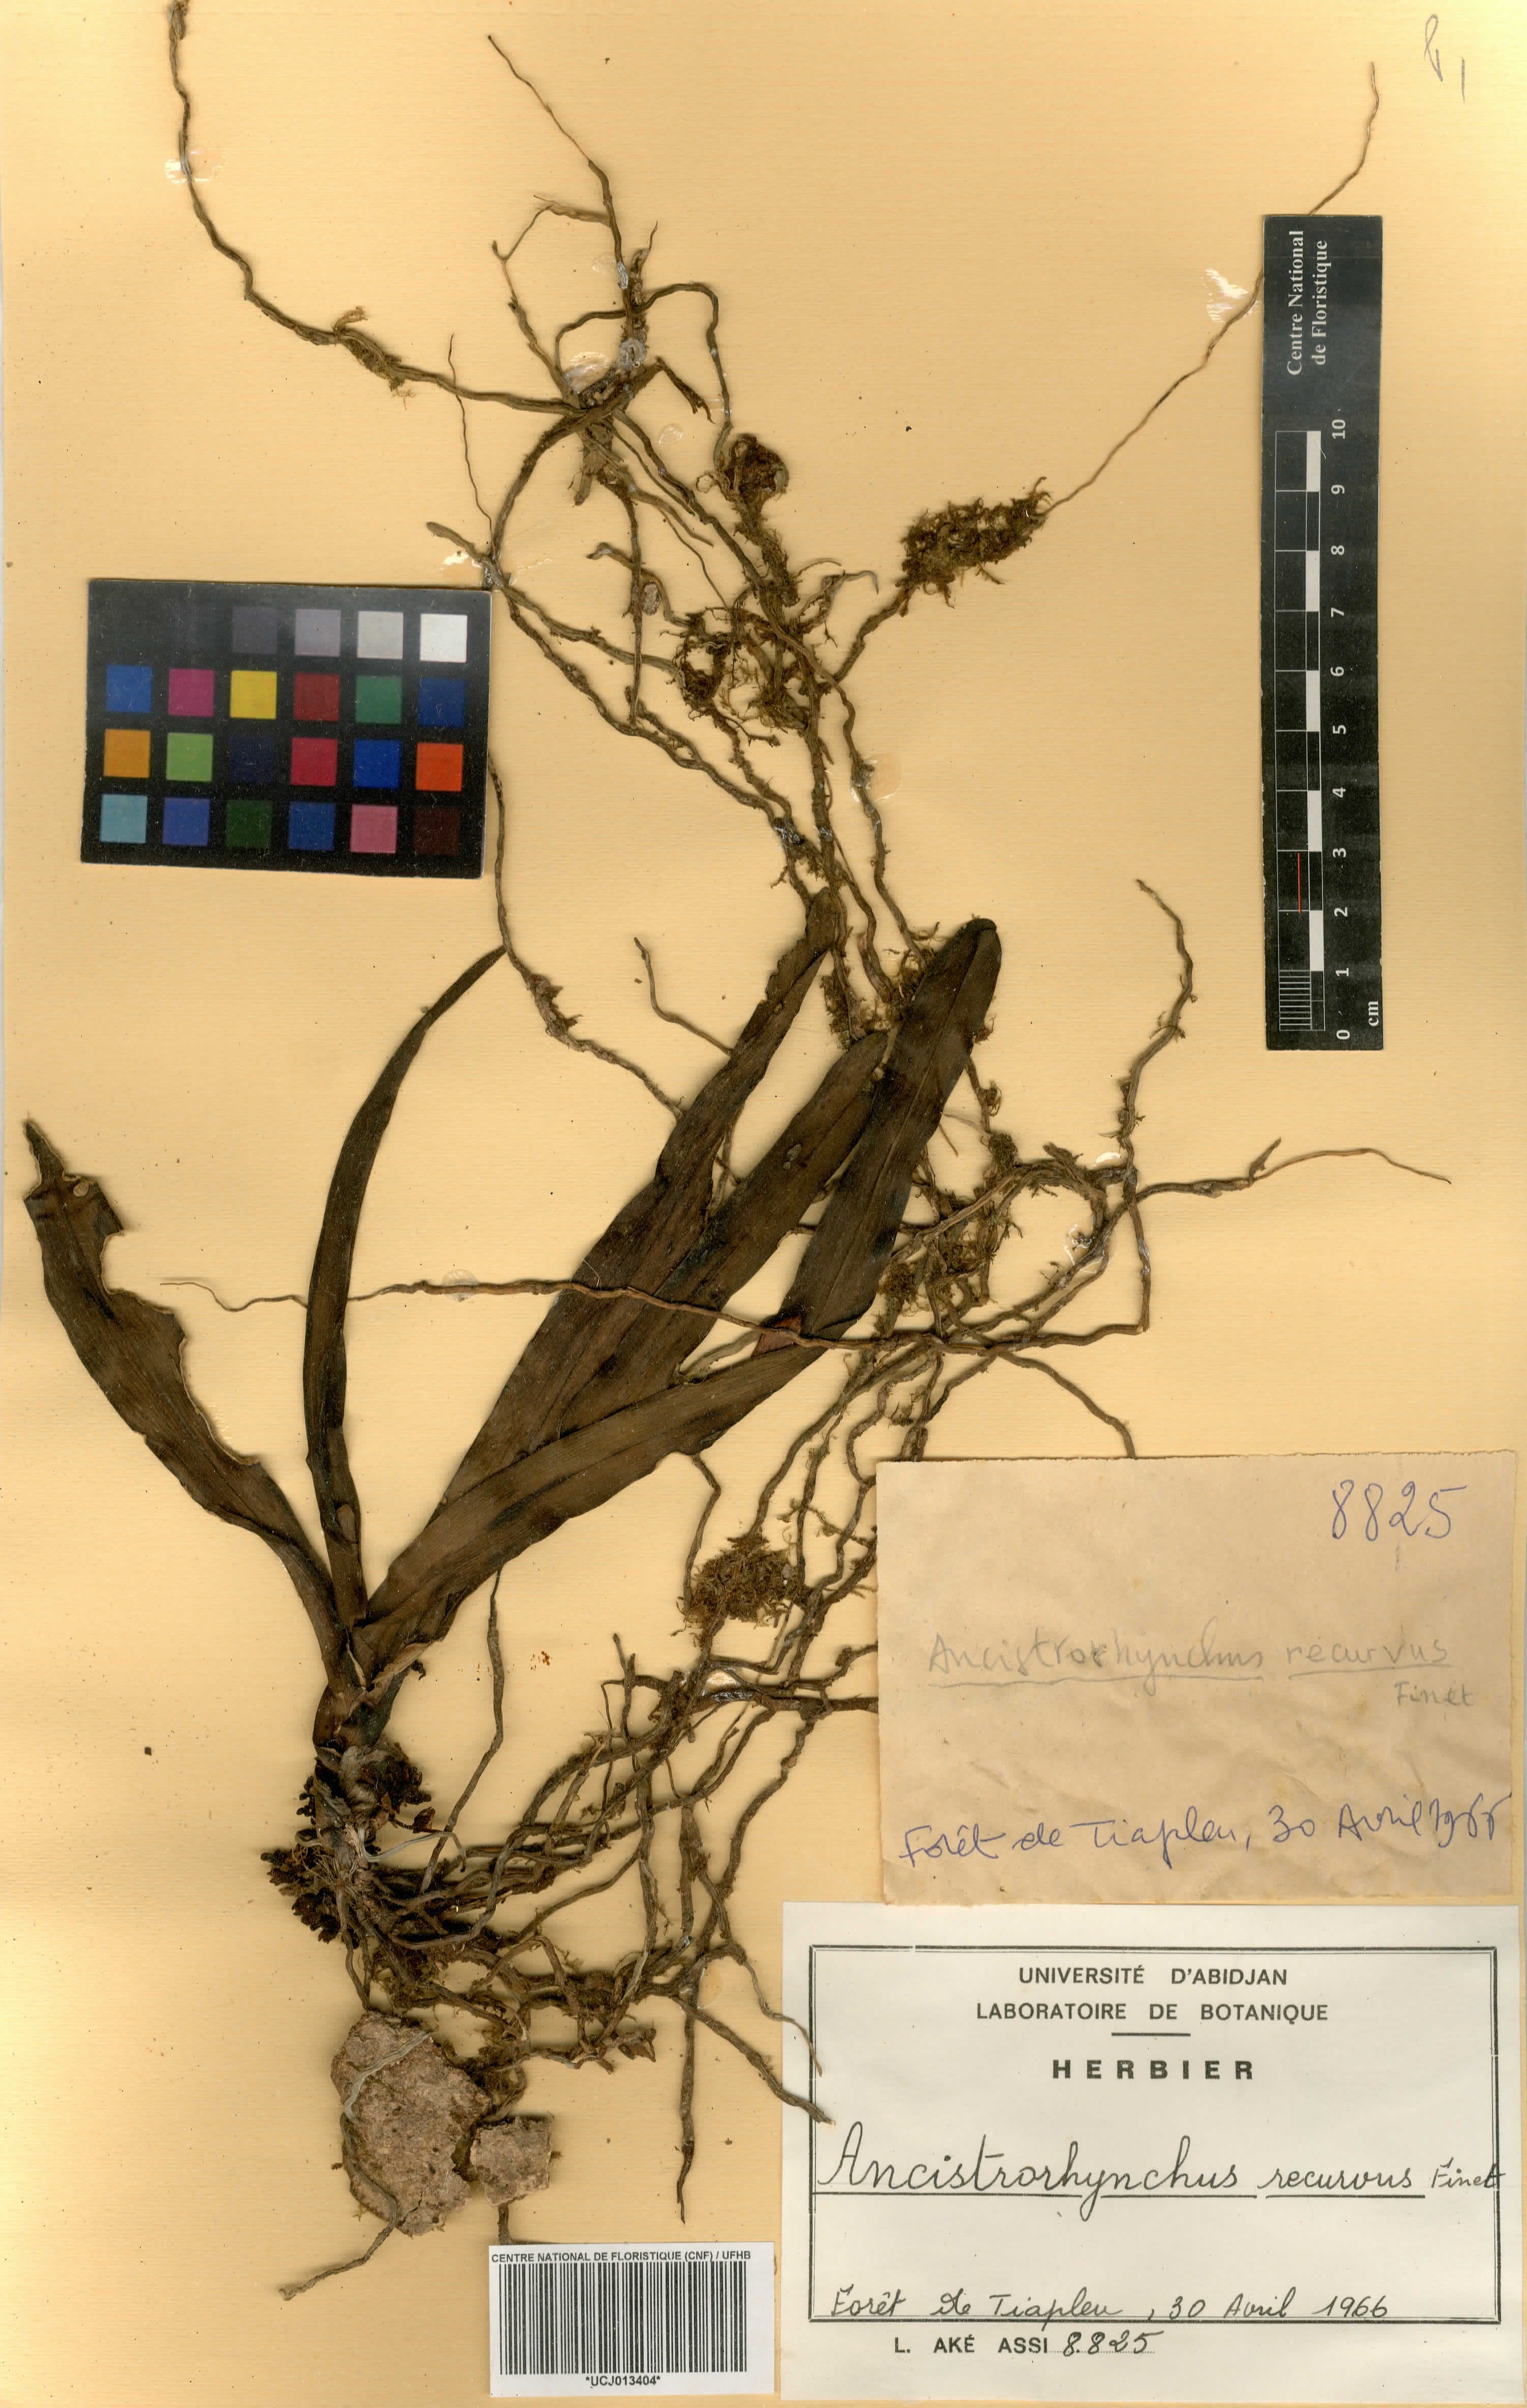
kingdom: Plantae
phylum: Tracheophyta
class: Liliopsida
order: Asparagales
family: Orchidaceae
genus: Ancistrorhynchus
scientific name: Ancistrorhynchus recurvus
